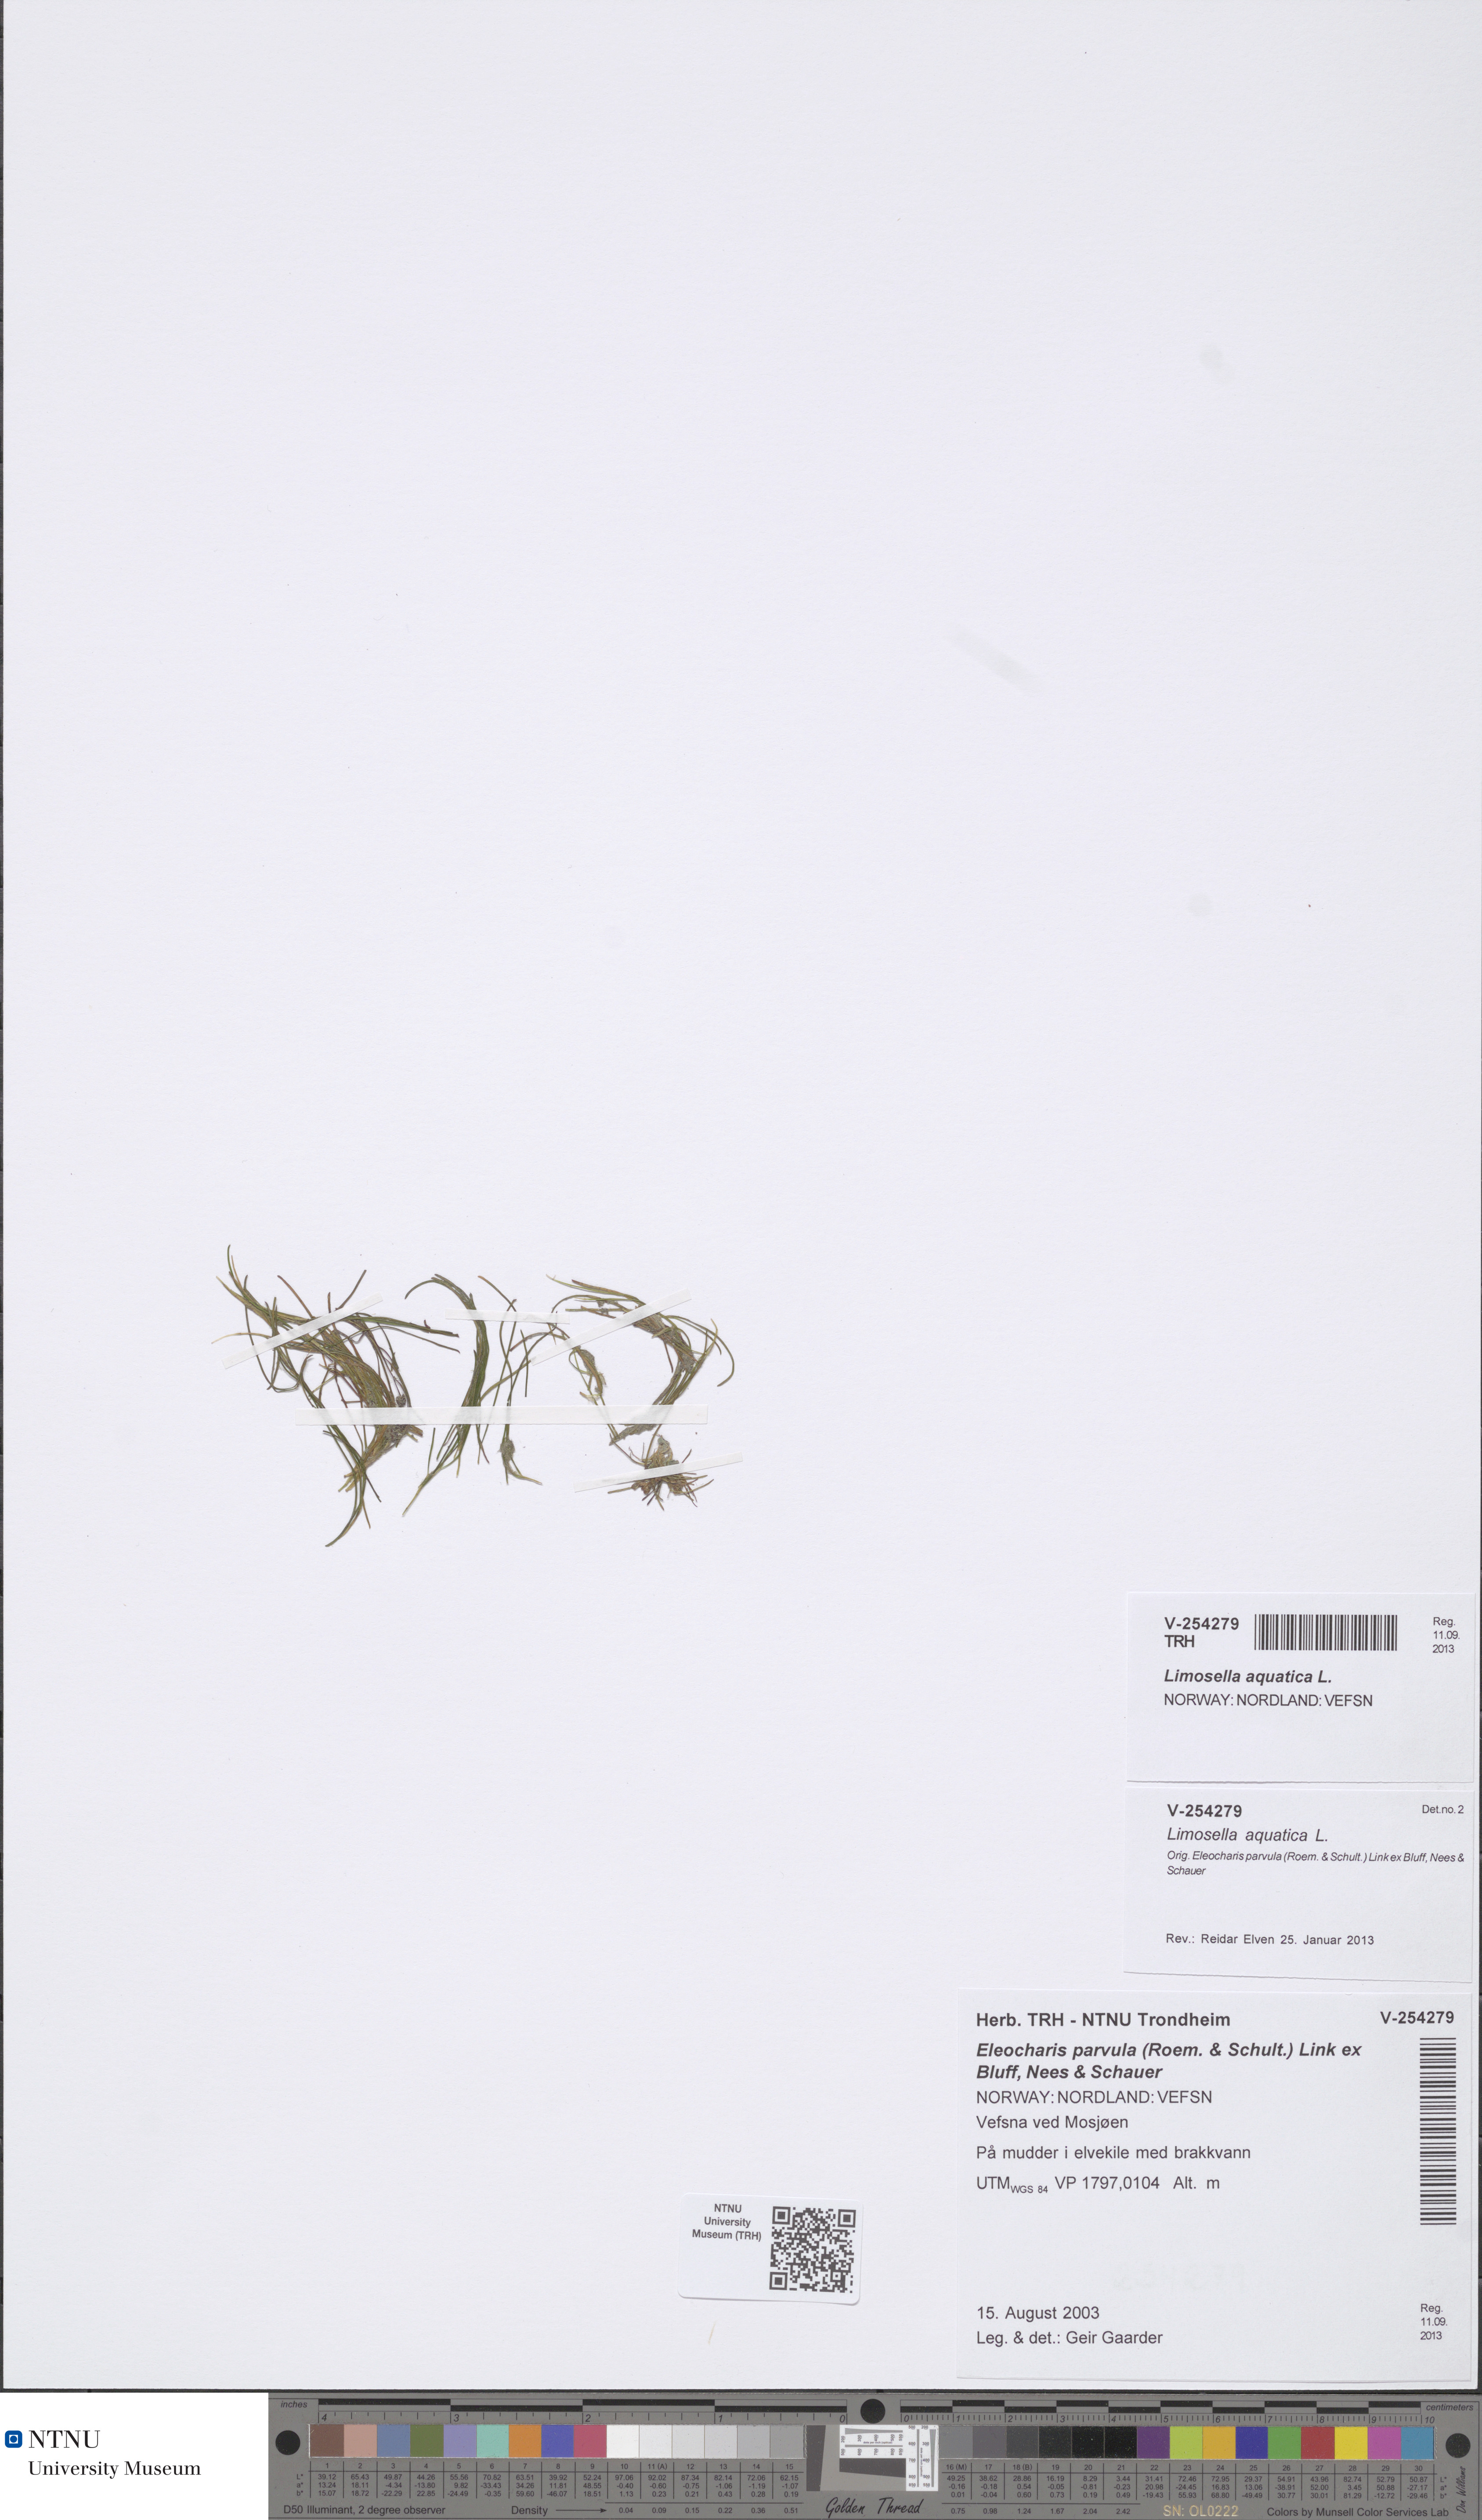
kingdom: Plantae
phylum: Tracheophyta
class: Magnoliopsida
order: Lamiales
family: Scrophulariaceae
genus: Limosella
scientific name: Limosella aquatica
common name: Mudwort
